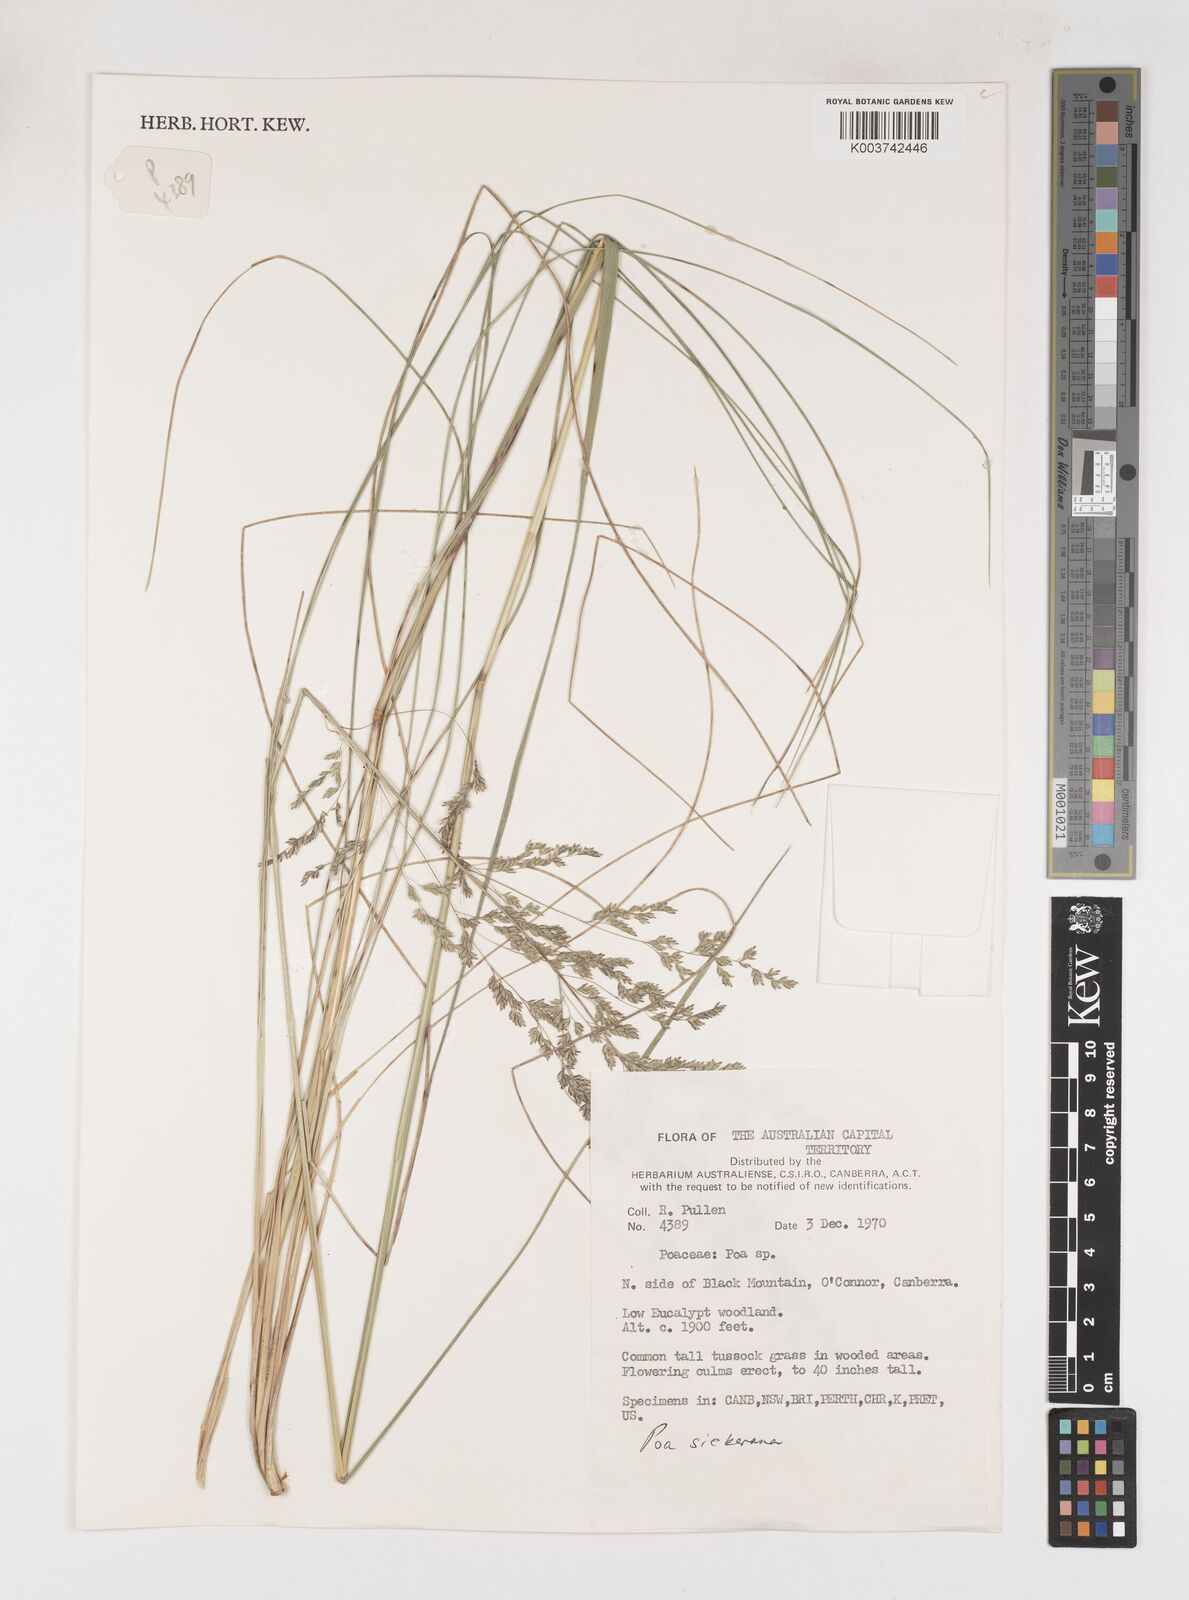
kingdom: Plantae
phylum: Tracheophyta
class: Liliopsida
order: Poales
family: Poaceae
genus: Poa
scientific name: Poa
